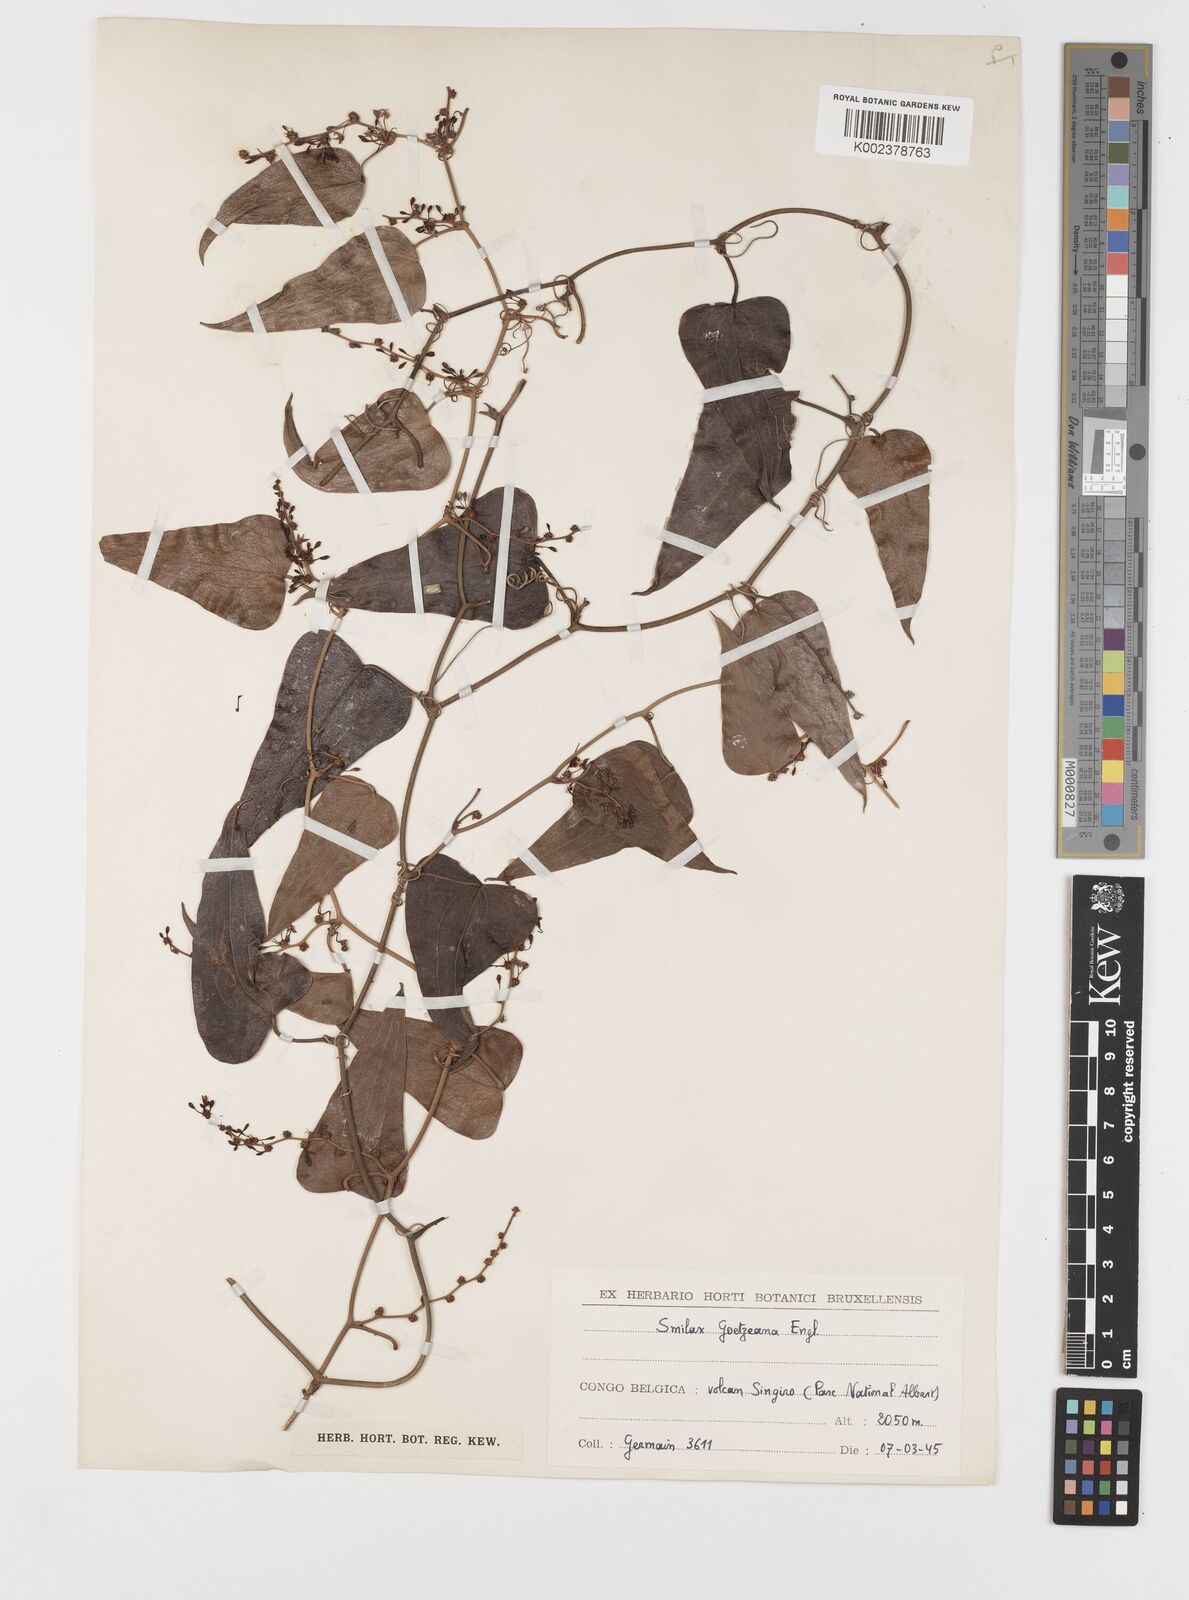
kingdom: Plantae
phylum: Tracheophyta
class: Liliopsida
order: Liliales
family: Smilacaceae
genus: Smilax
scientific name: Smilax aspera
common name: Common smilax
